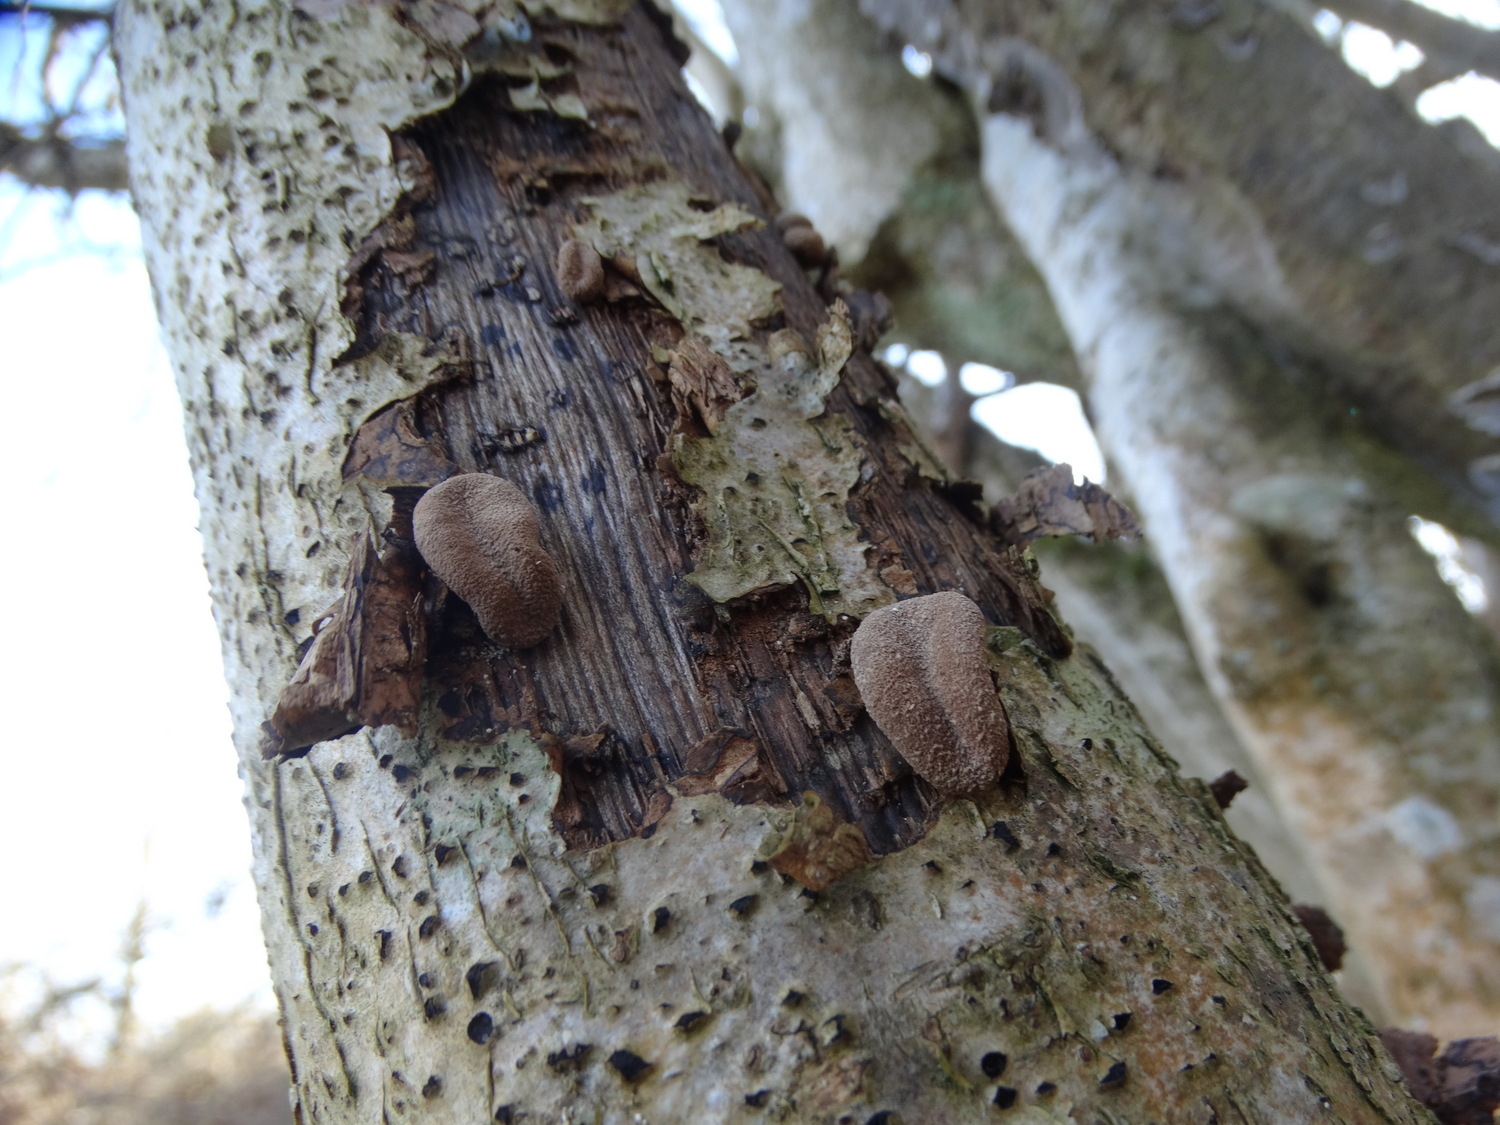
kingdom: Fungi
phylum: Ascomycota
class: Leotiomycetes
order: Helotiales
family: Cenangiaceae
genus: Encoelia
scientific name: Encoelia furfuracea
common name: hassel-læderskive
